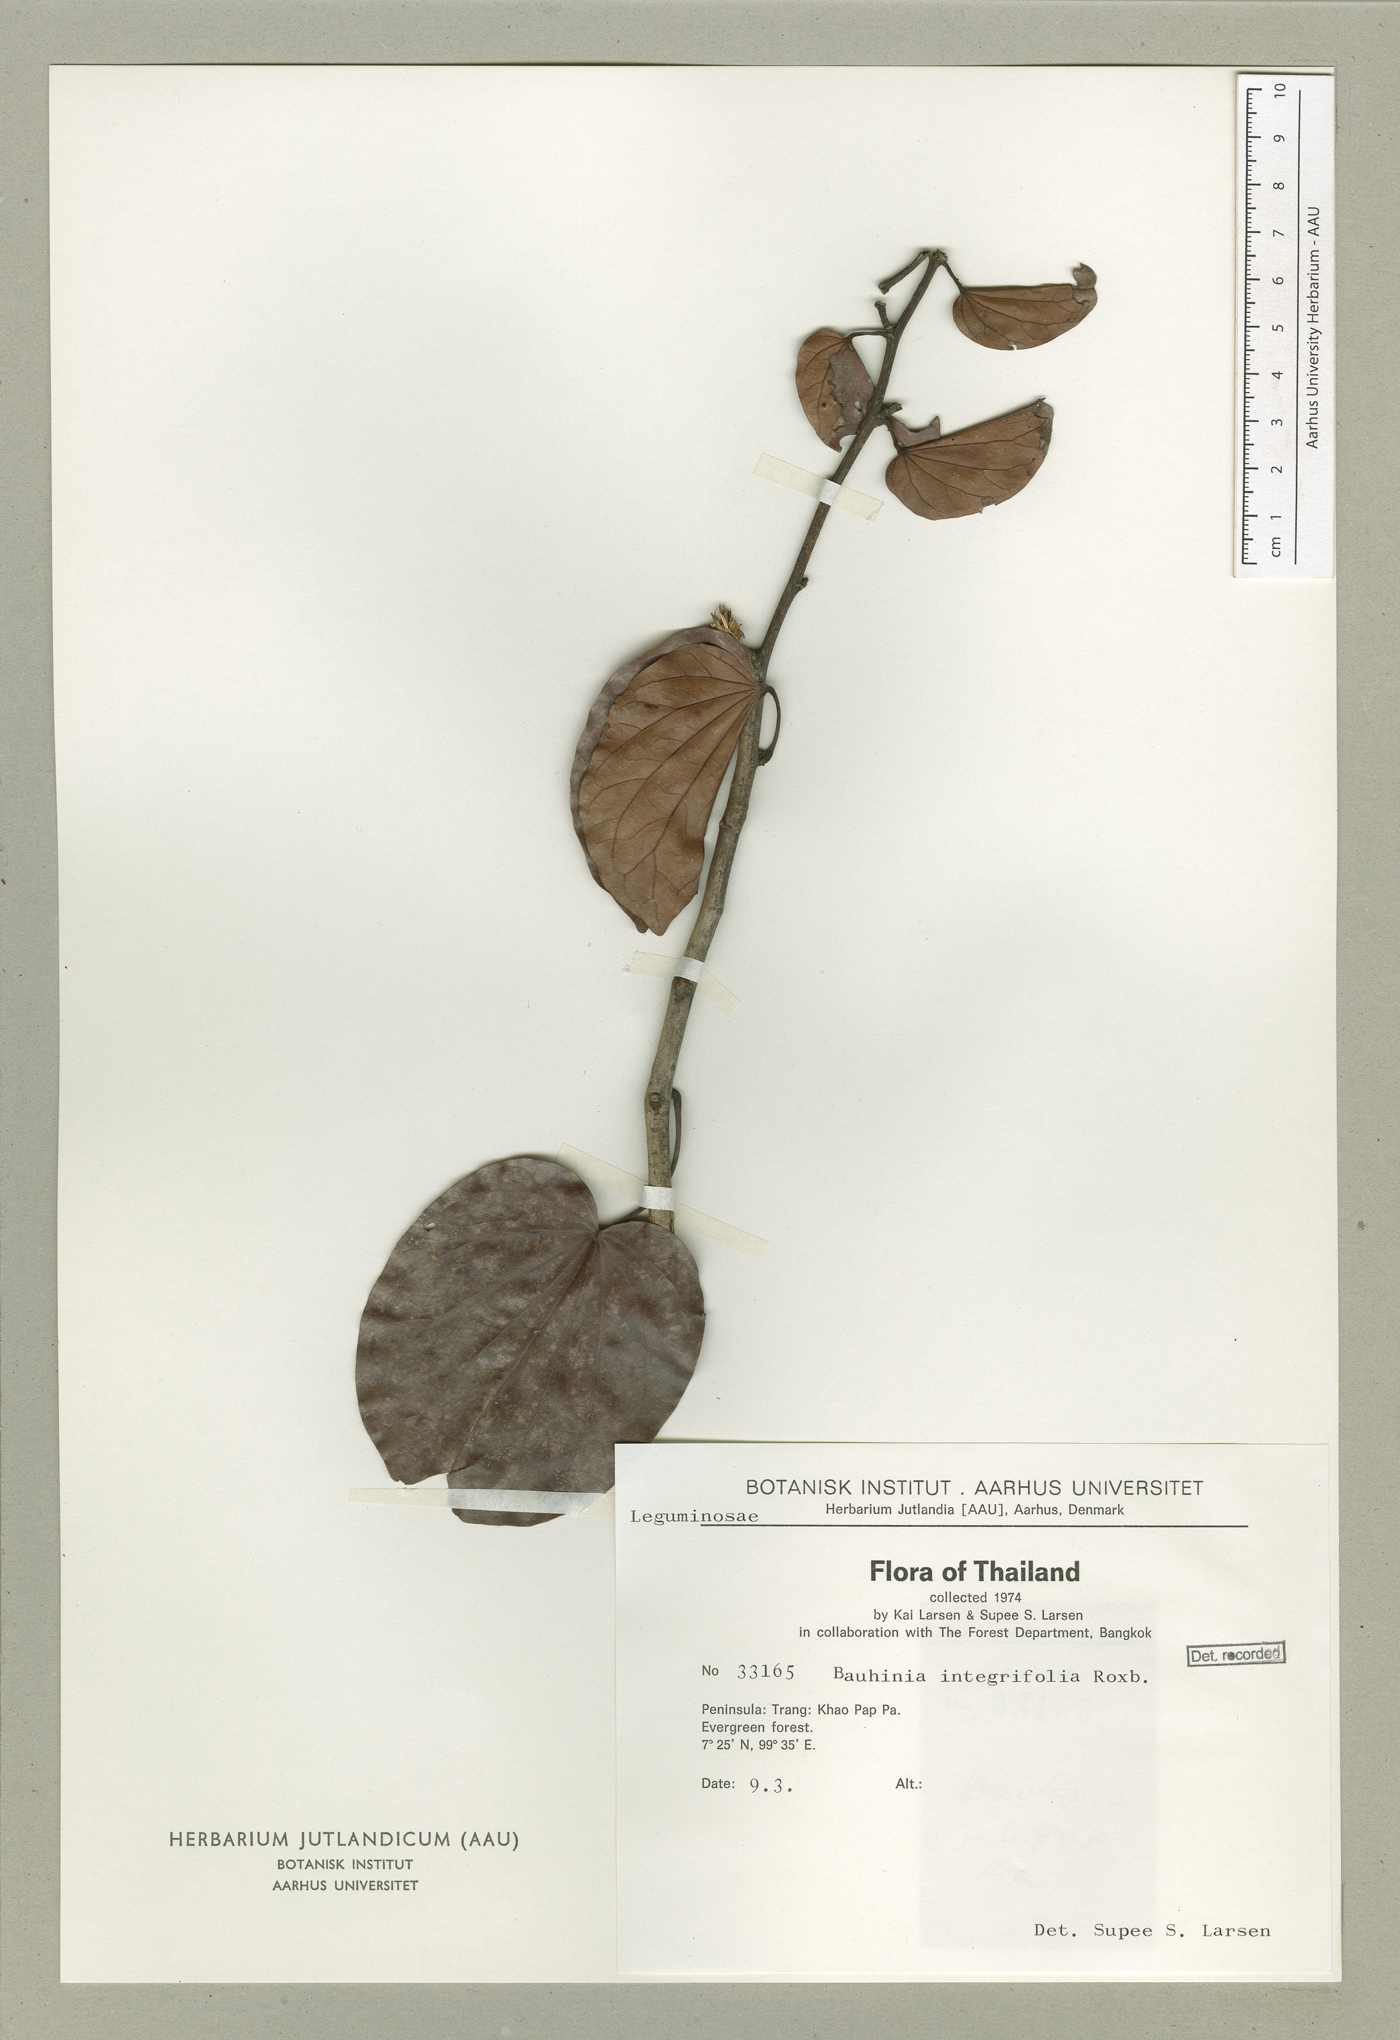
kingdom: Plantae
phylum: Tracheophyta
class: Magnoliopsida
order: Fabales
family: Fabaceae
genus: Phanera
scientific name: Phanera integrifolia
